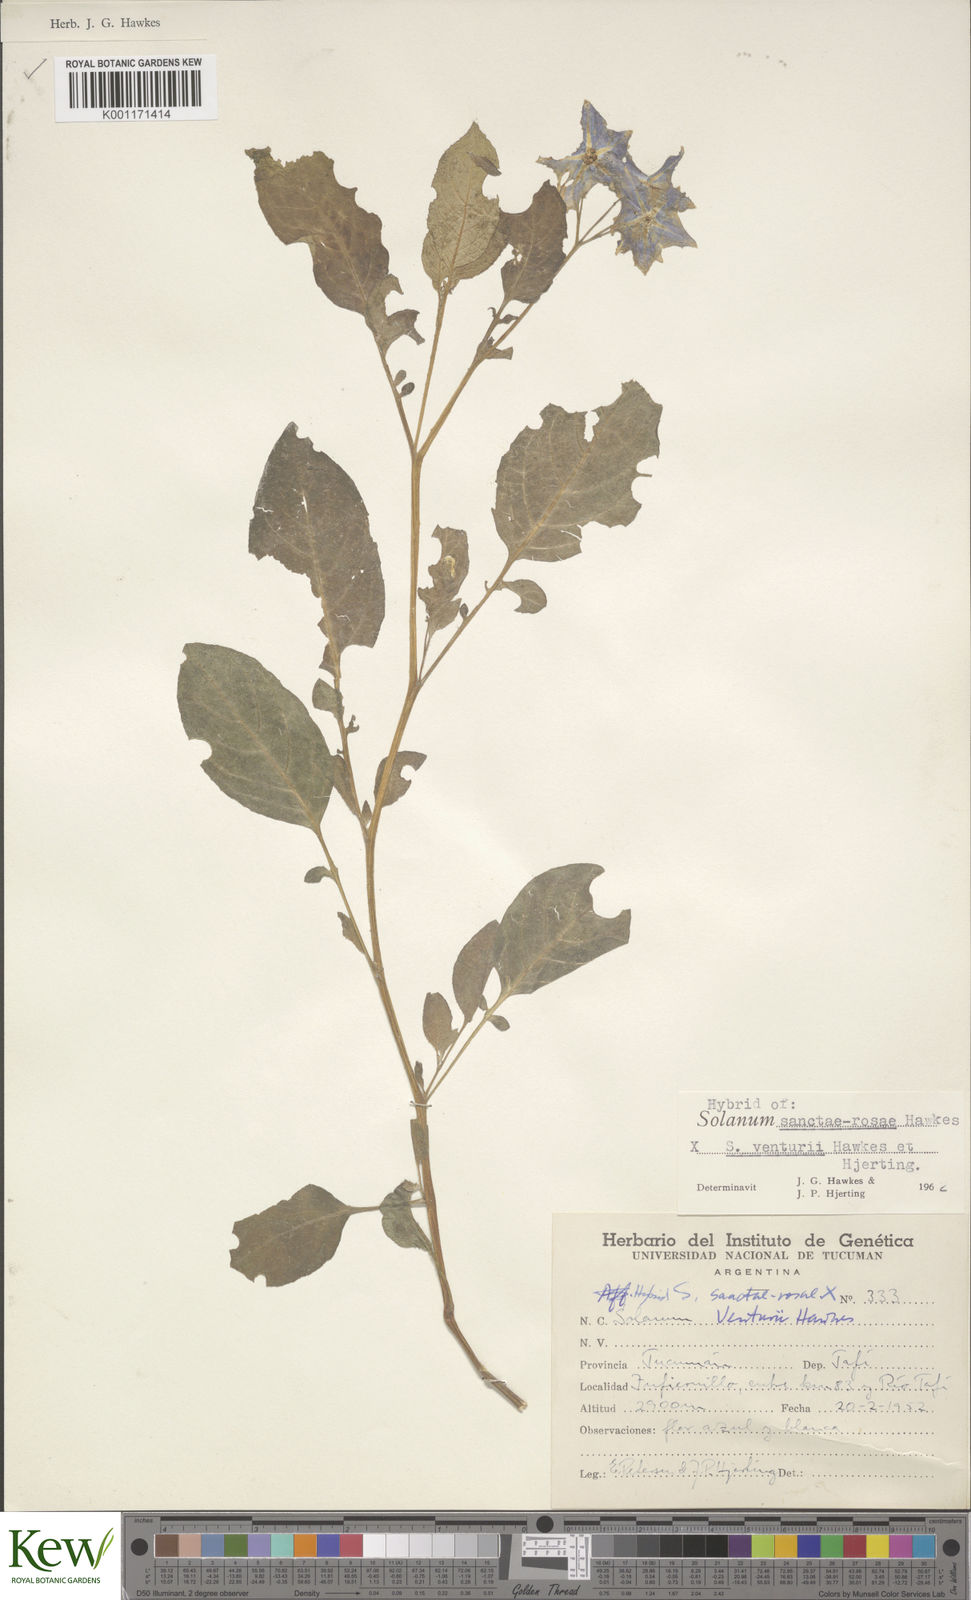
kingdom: Plantae
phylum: Tracheophyta
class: Magnoliopsida
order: Solanales
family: Solanaceae
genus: Solanum
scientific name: Solanum boliviense
